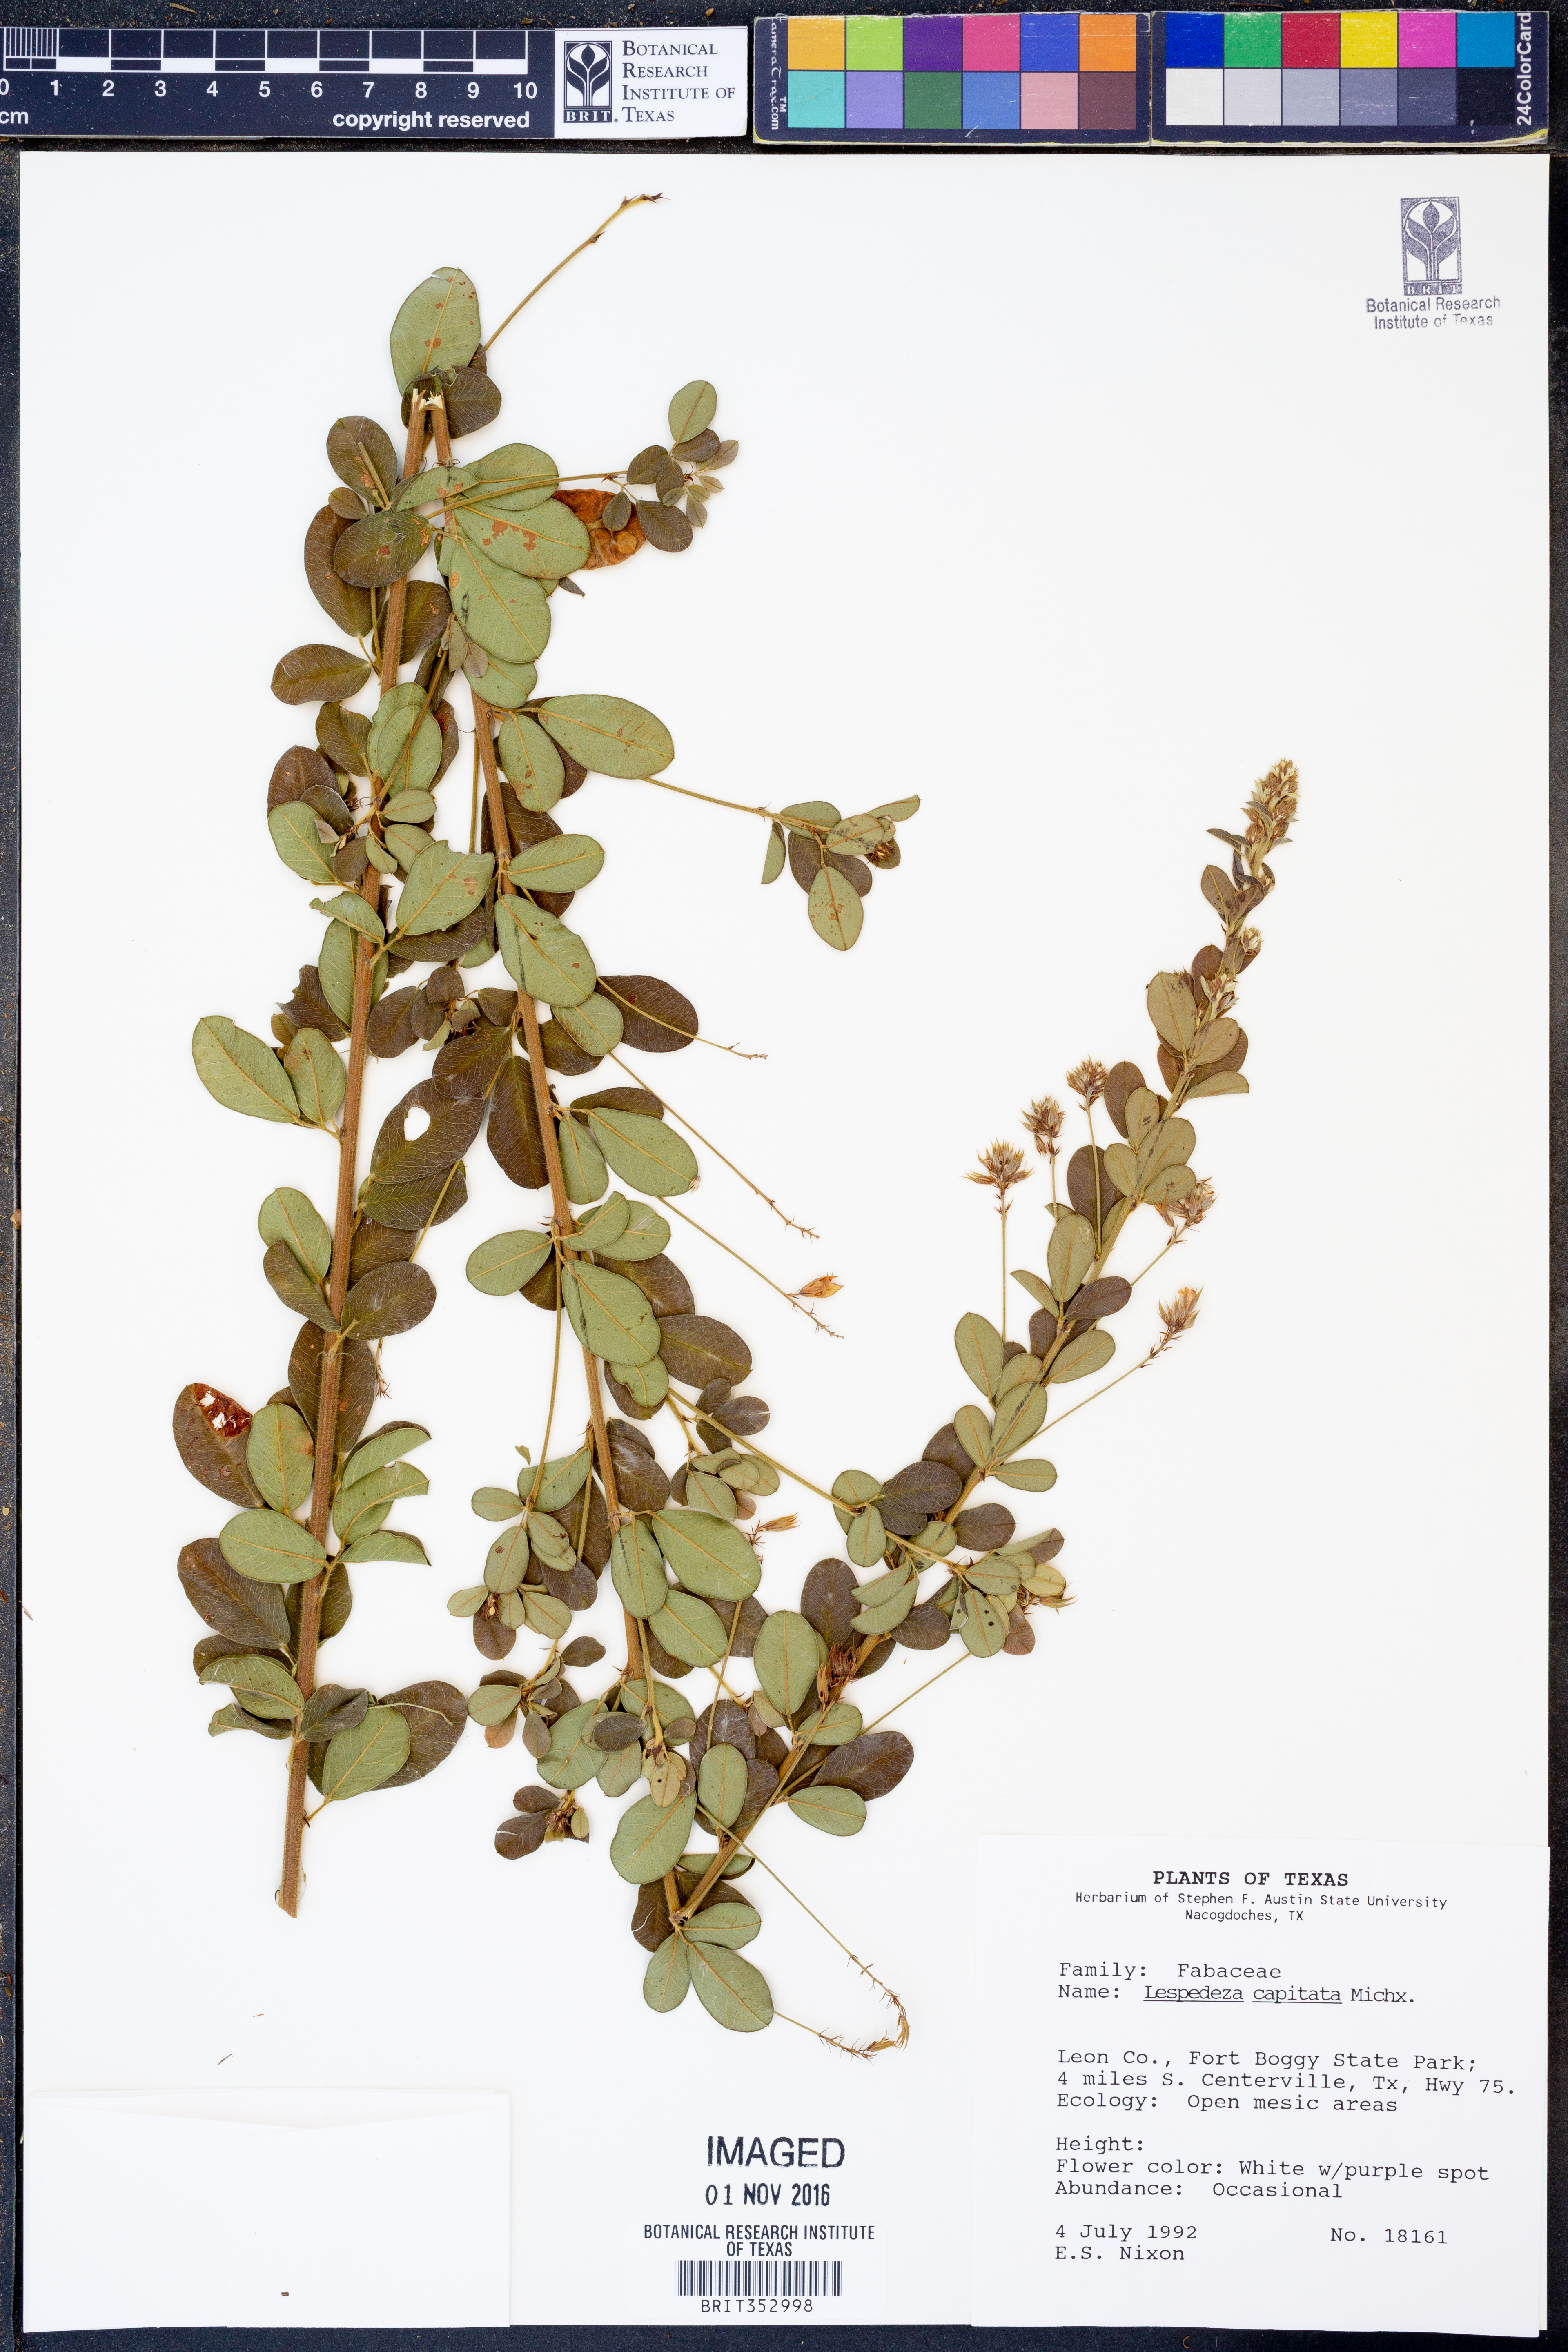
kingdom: Plantae
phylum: Tracheophyta
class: Magnoliopsida
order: Fabales
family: Fabaceae
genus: Lespedeza
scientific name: Lespedeza capitata
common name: Dusty clover
